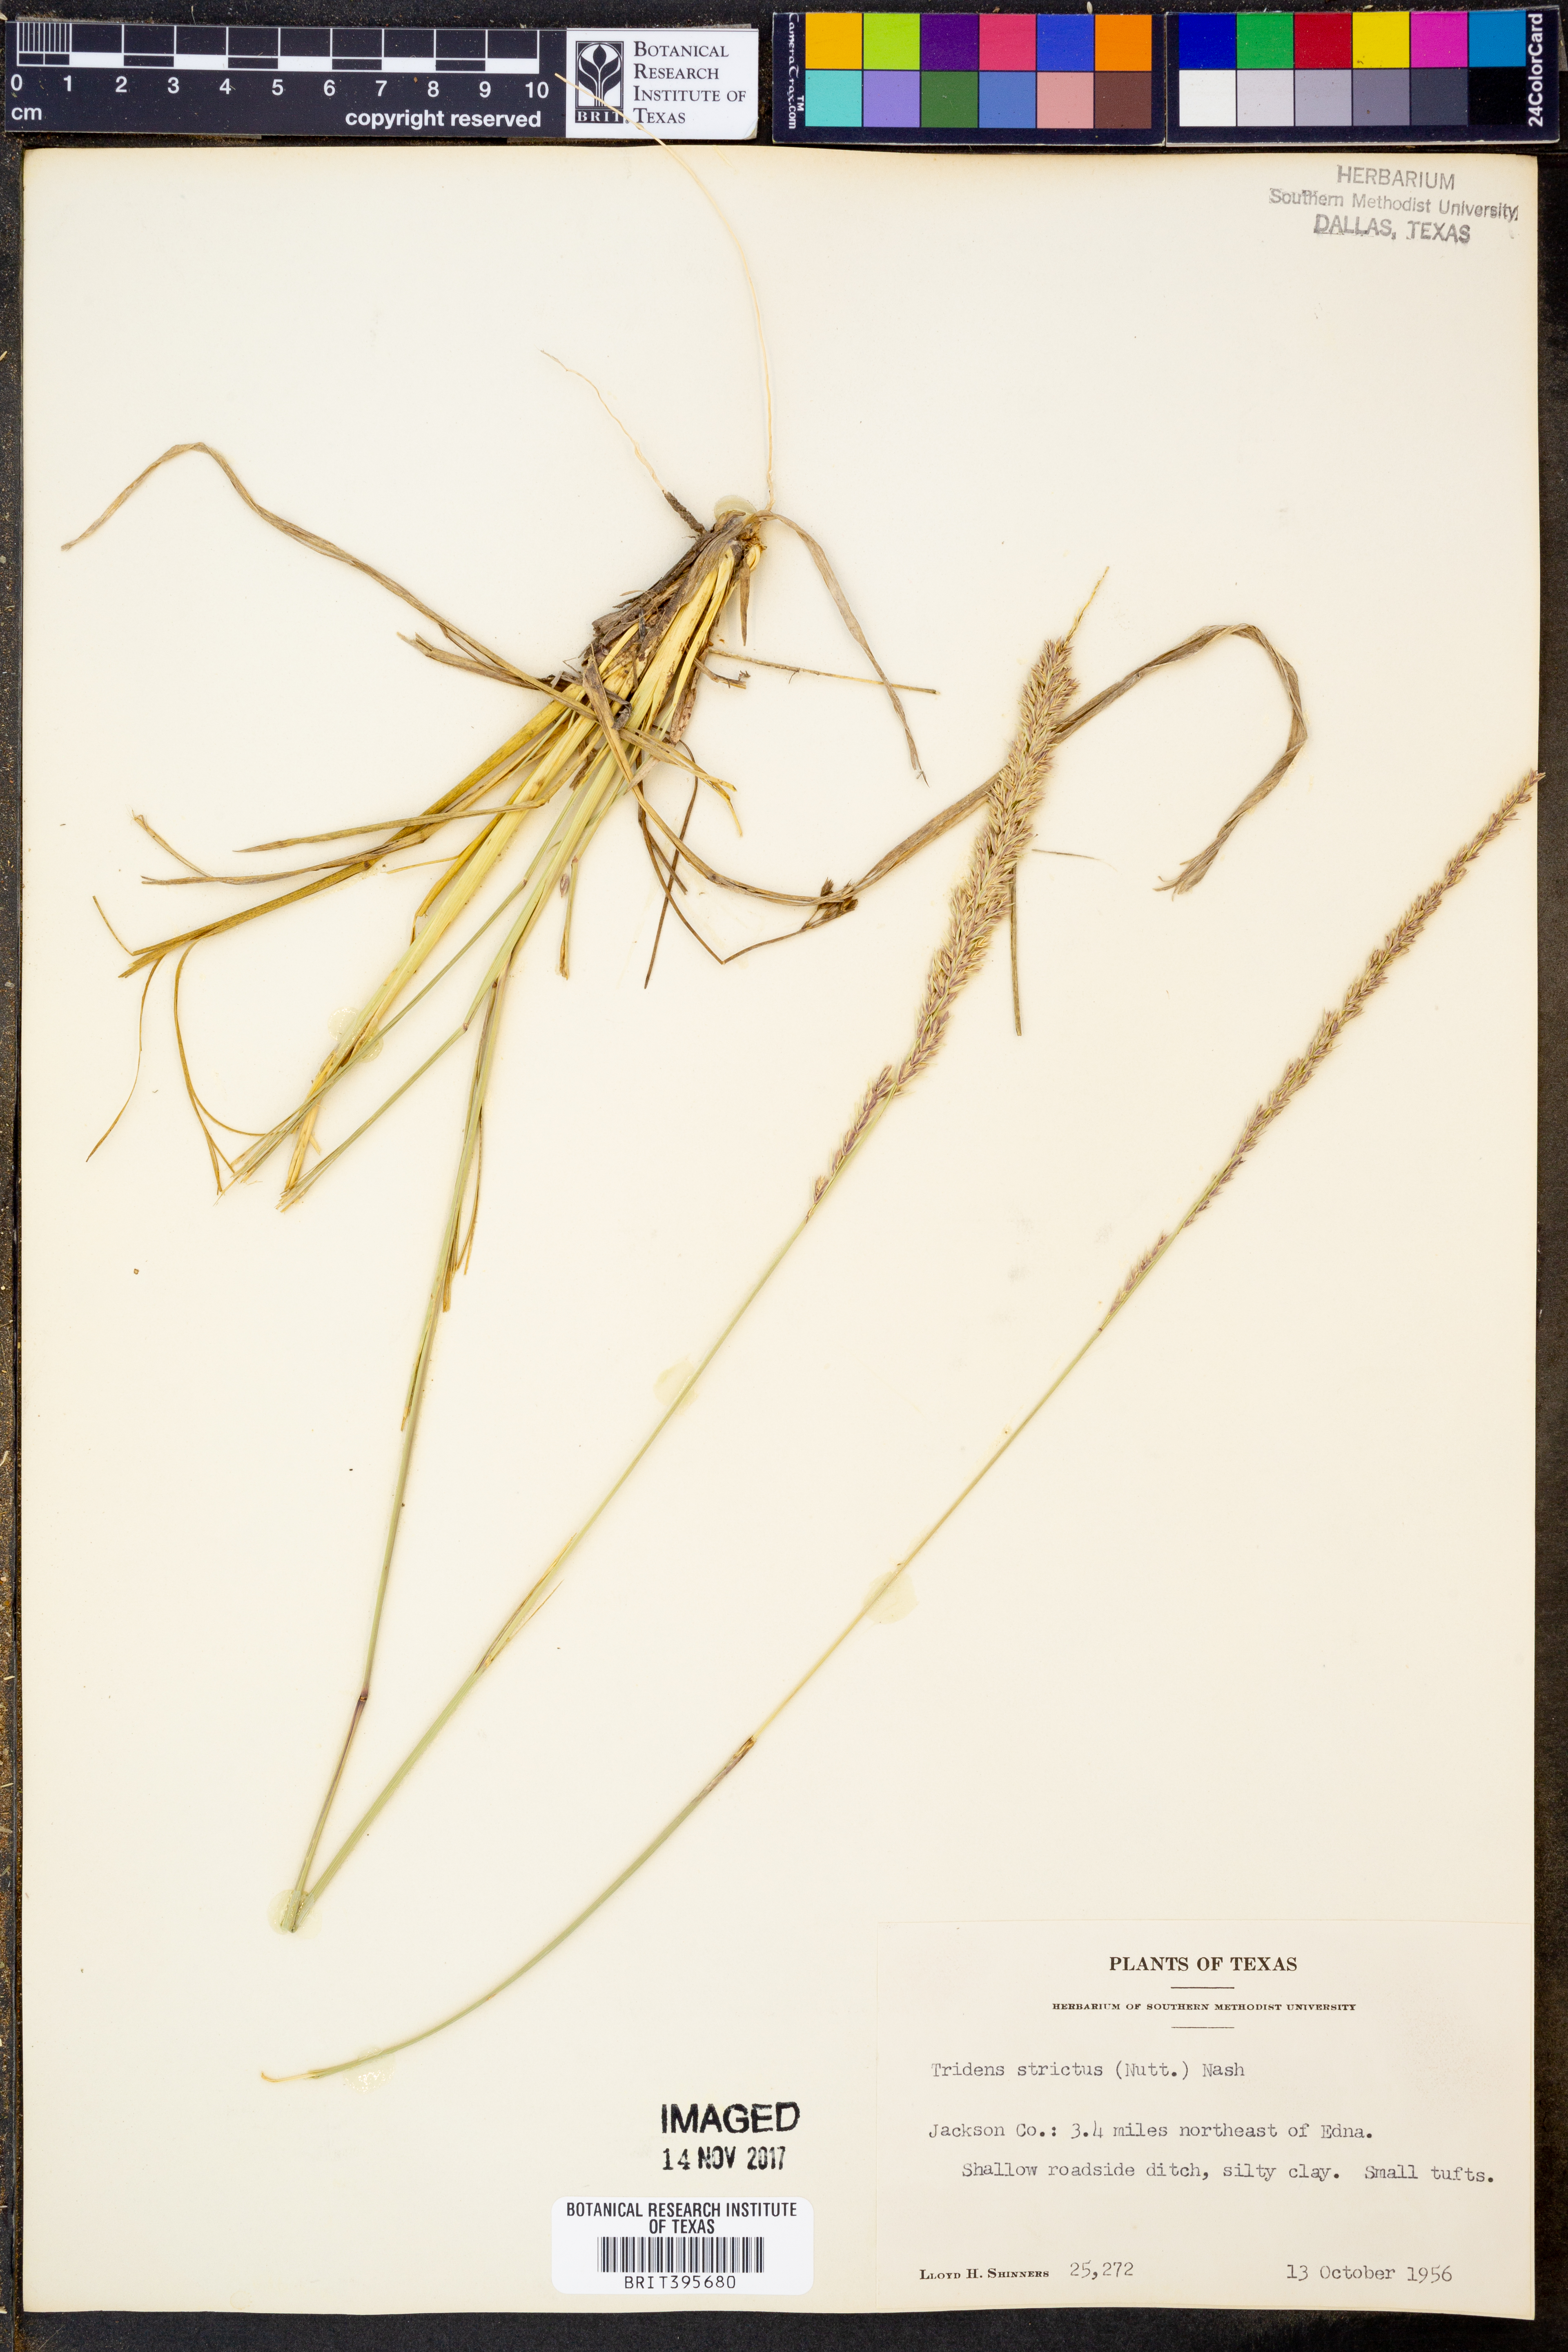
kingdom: Plantae
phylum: Tracheophyta
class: Liliopsida
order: Poales
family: Poaceae
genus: Tridens
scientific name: Tridens strictus
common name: Long-spike tridens
